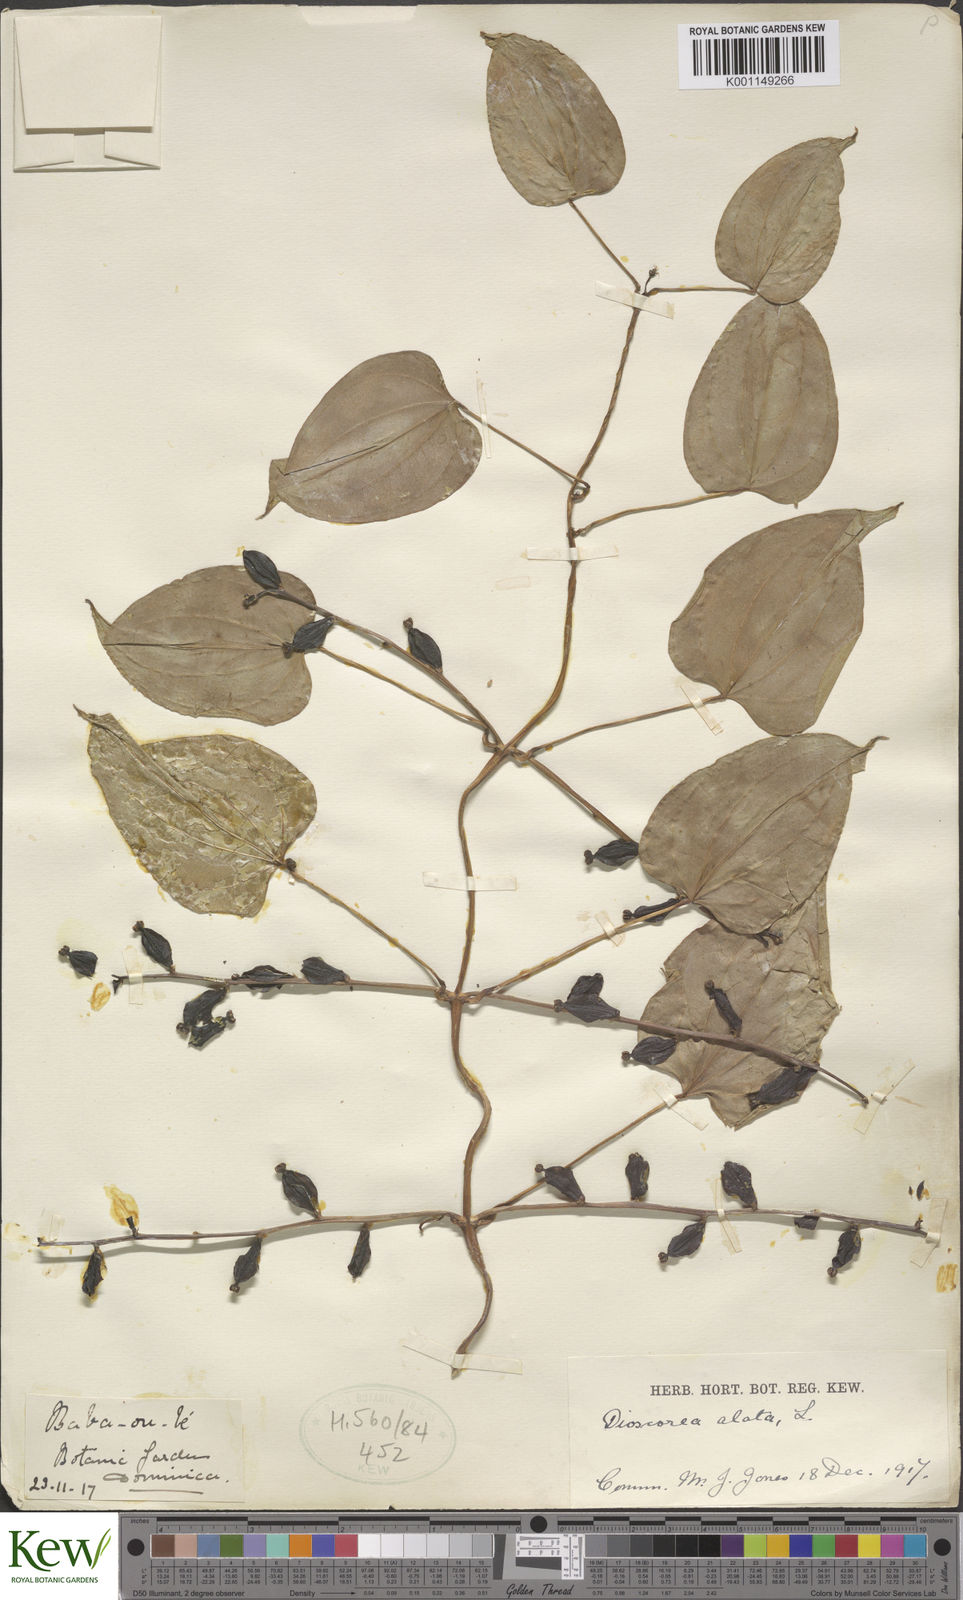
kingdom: Plantae
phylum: Tracheophyta
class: Liliopsida
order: Dioscoreales
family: Dioscoreaceae
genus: Dioscorea
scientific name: Dioscorea alata
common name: Water yam
